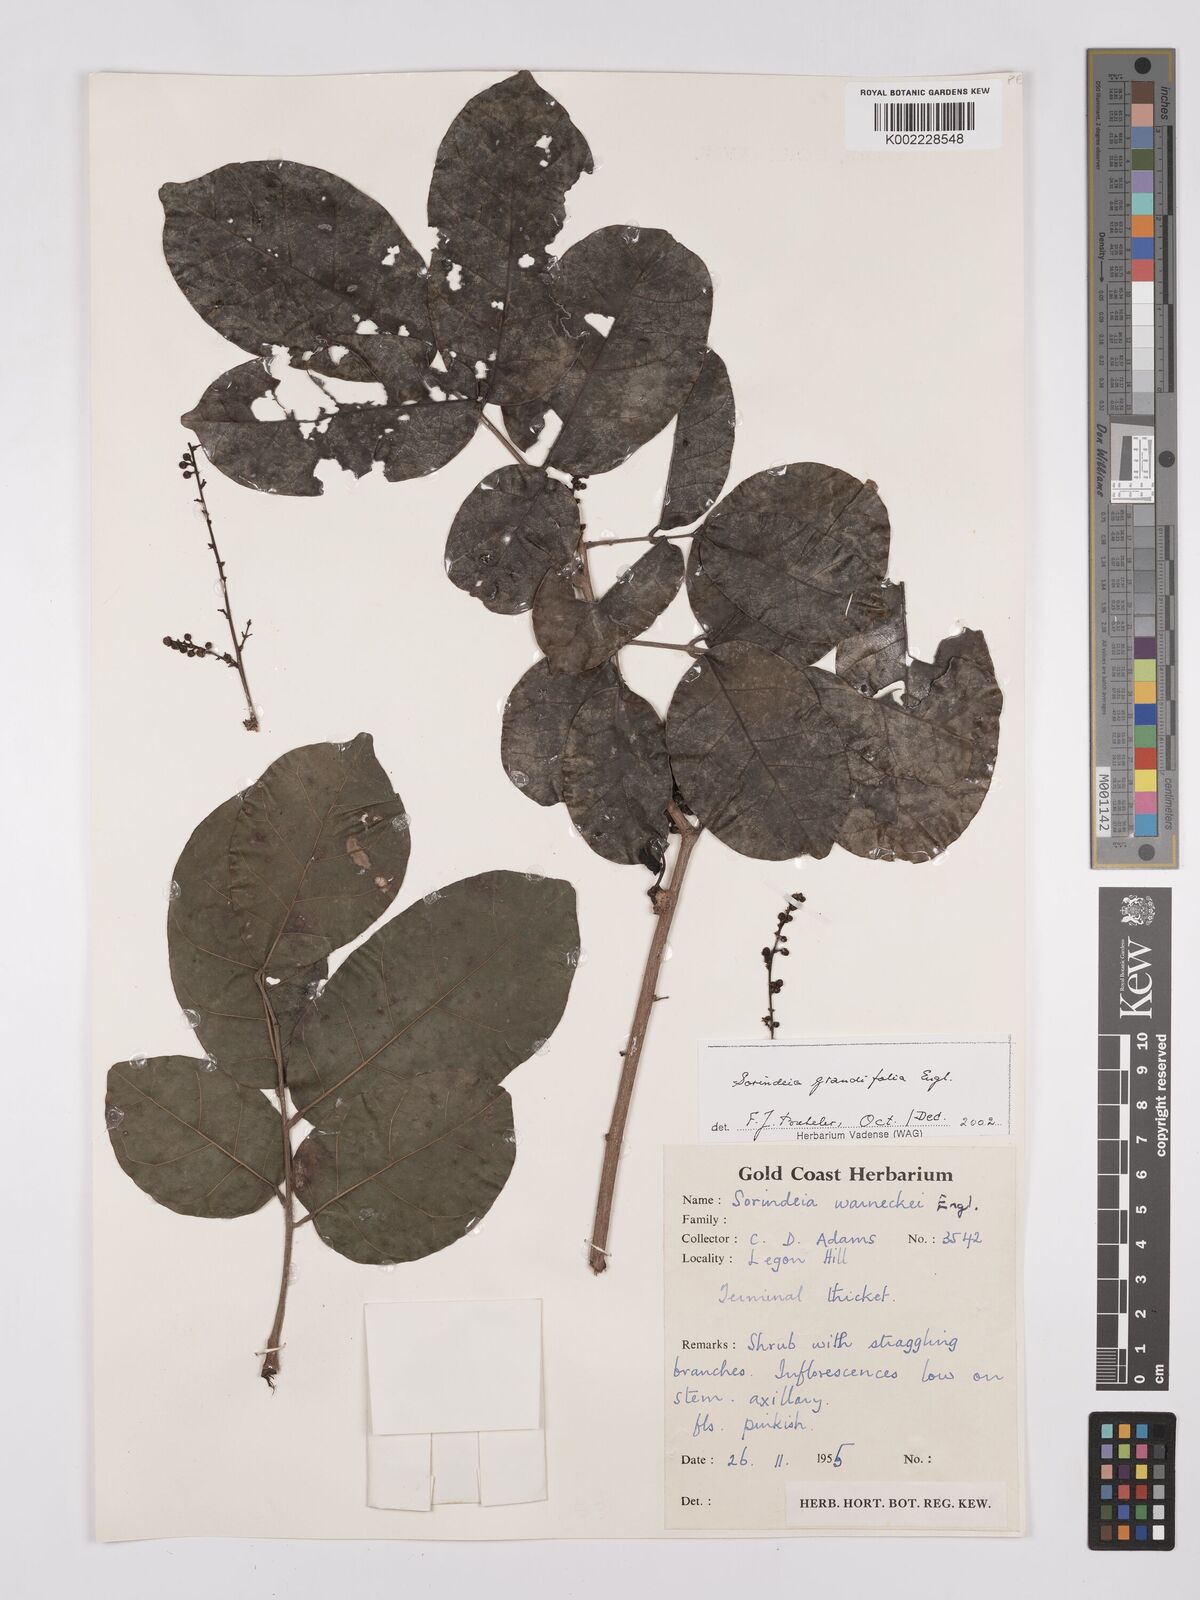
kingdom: Plantae
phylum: Tracheophyta
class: Magnoliopsida
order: Sapindales
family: Anacardiaceae
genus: Sorindeia
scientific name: Sorindeia grandifolia
